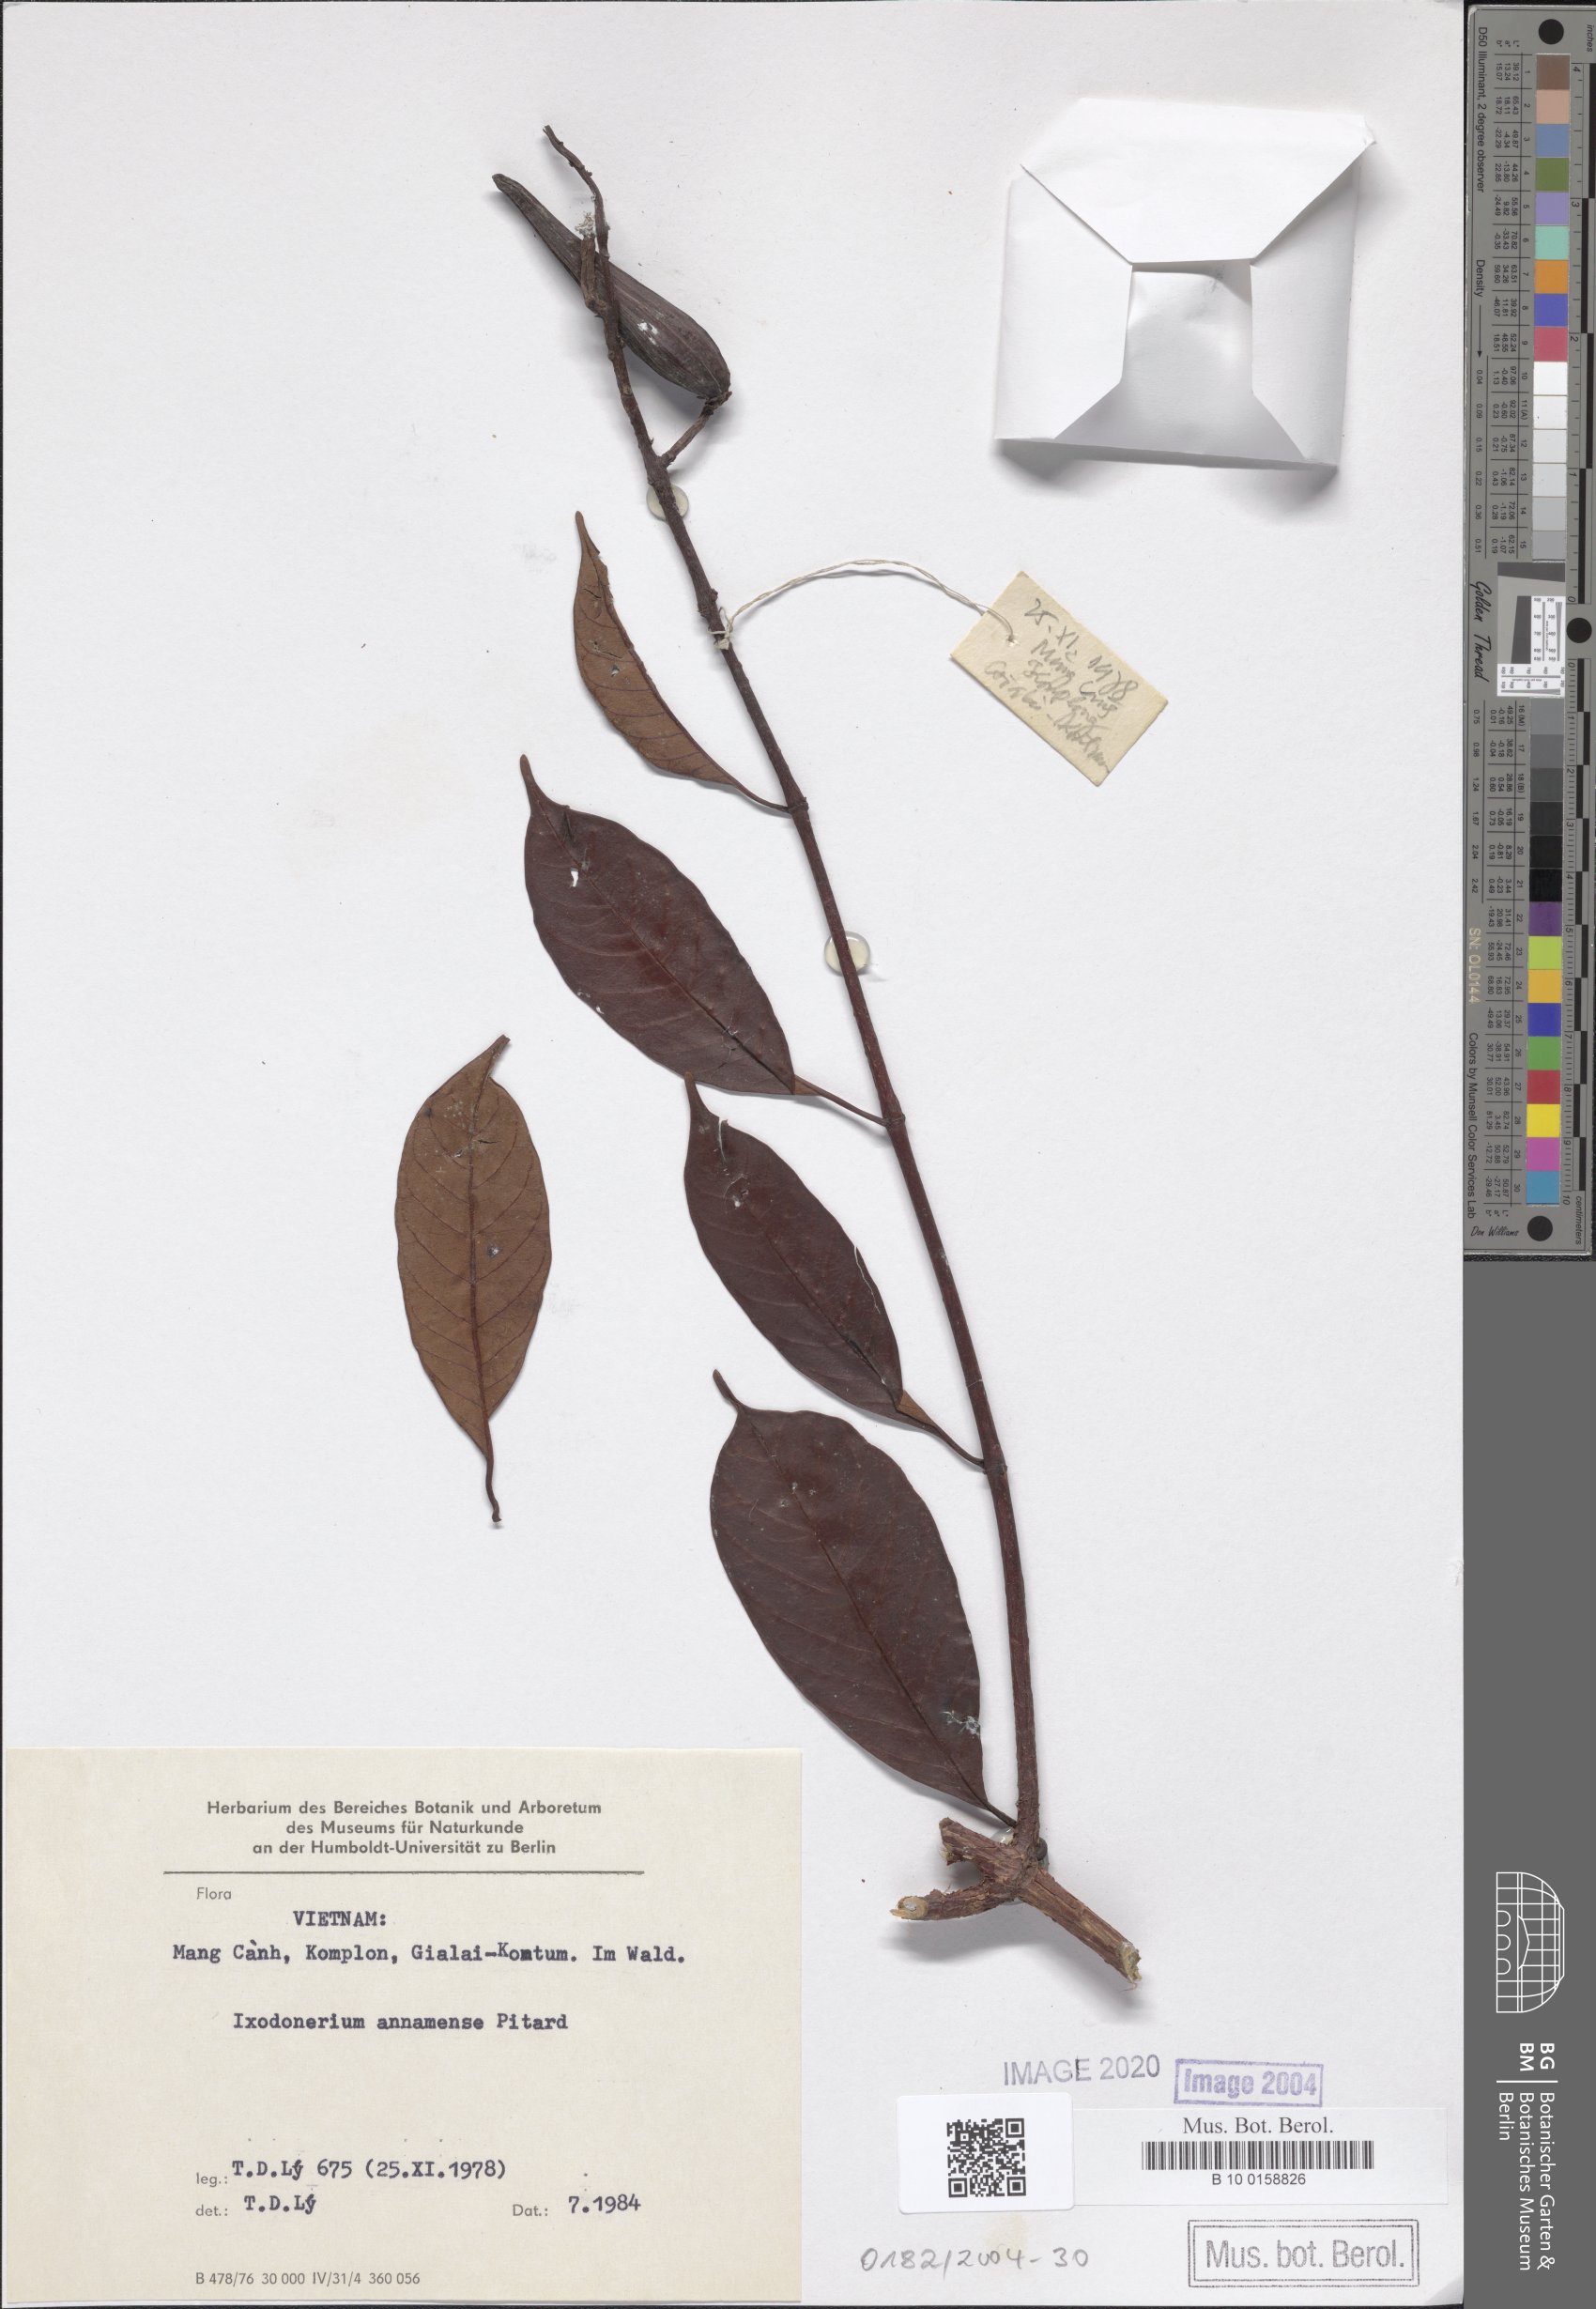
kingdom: Plantae
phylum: Tracheophyta
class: Magnoliopsida
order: Gentianales
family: Apocynaceae
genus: Ixodonerium
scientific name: Ixodonerium annamense
